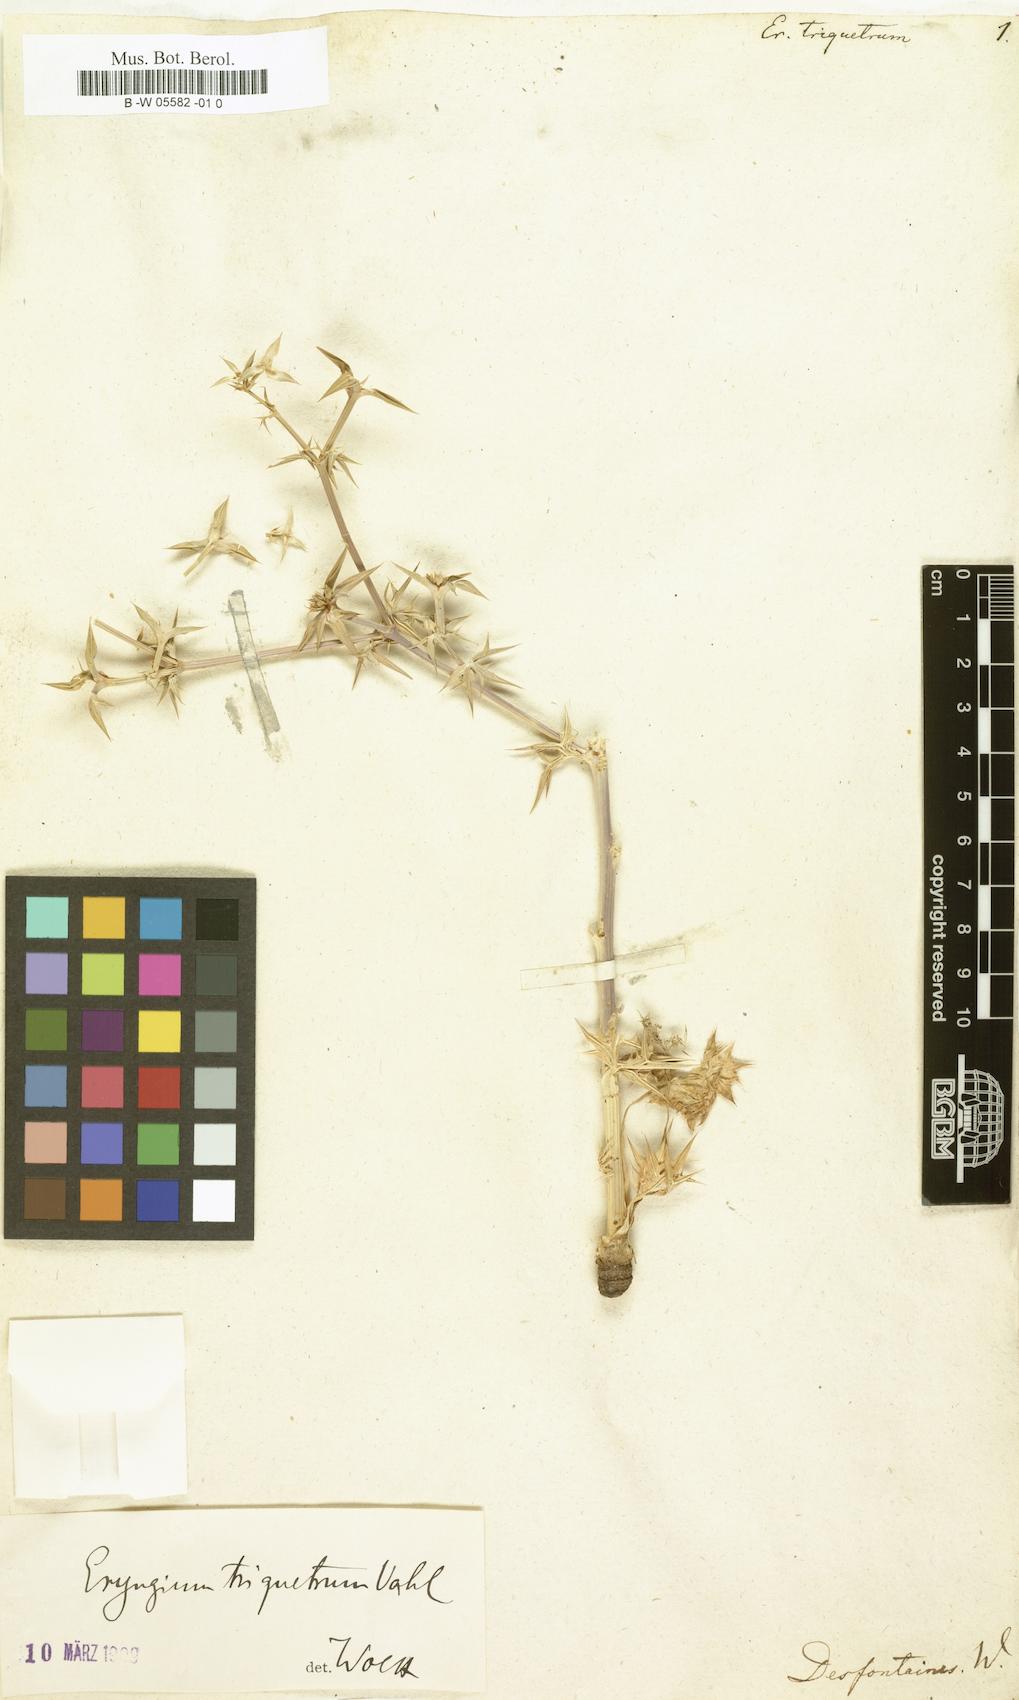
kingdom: Plantae
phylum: Tracheophyta
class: Magnoliopsida
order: Apiales
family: Apiaceae
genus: Eryngium
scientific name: Eryngium triquetrum
